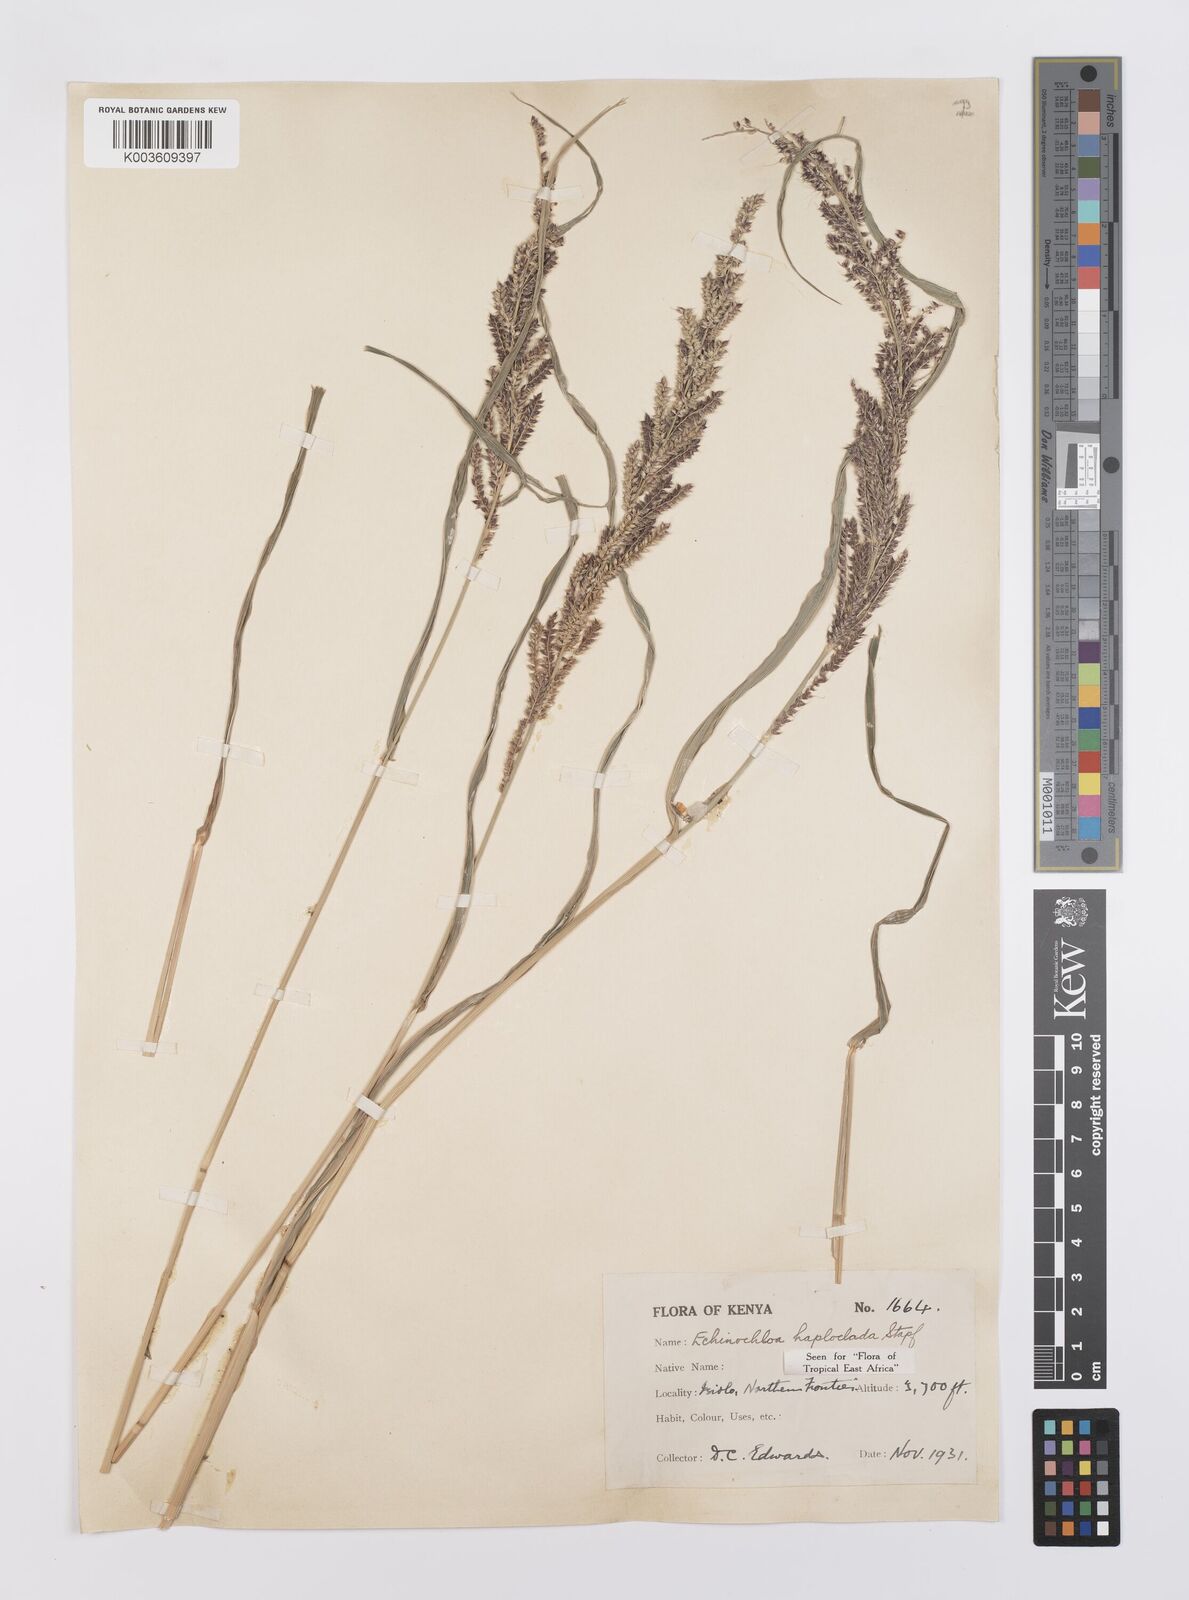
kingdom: Plantae
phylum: Tracheophyta
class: Liliopsida
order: Poales
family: Poaceae
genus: Echinochloa
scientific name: Echinochloa haploclada
